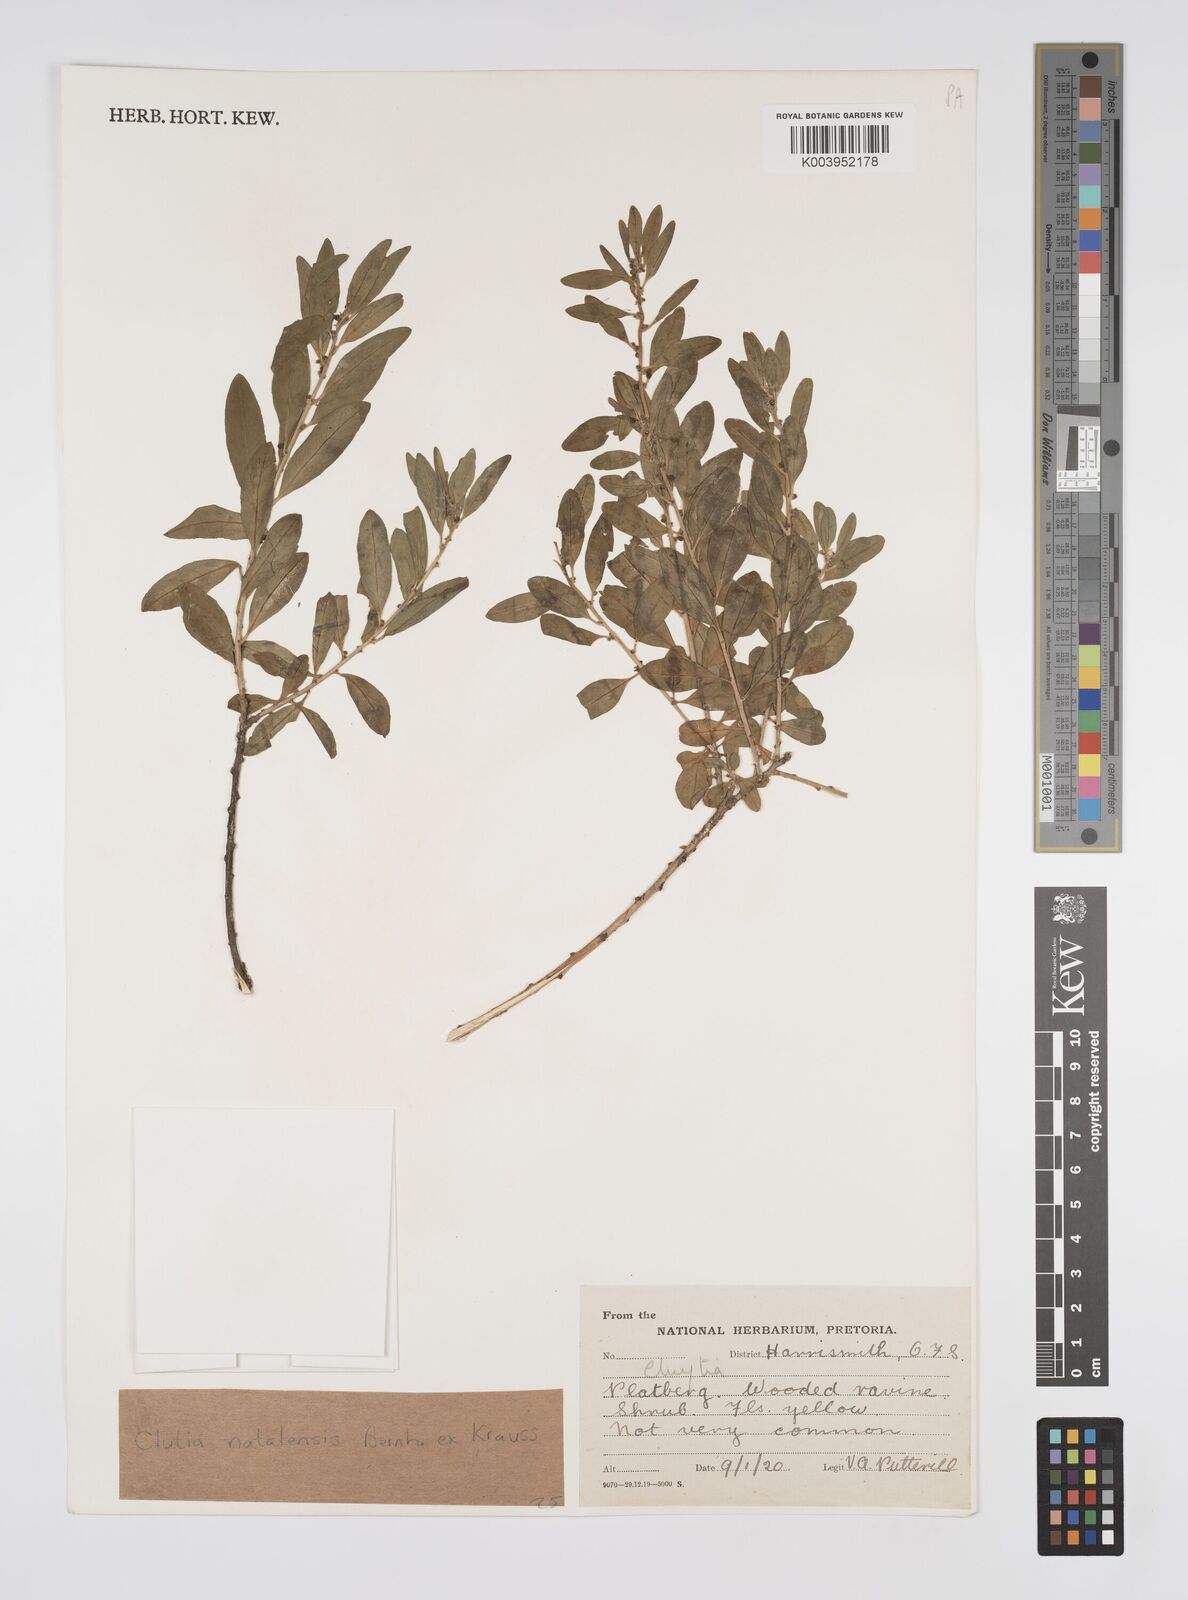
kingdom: Plantae
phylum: Tracheophyta
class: Magnoliopsida
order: Malpighiales
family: Peraceae
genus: Clutia
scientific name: Clutia natalensis
